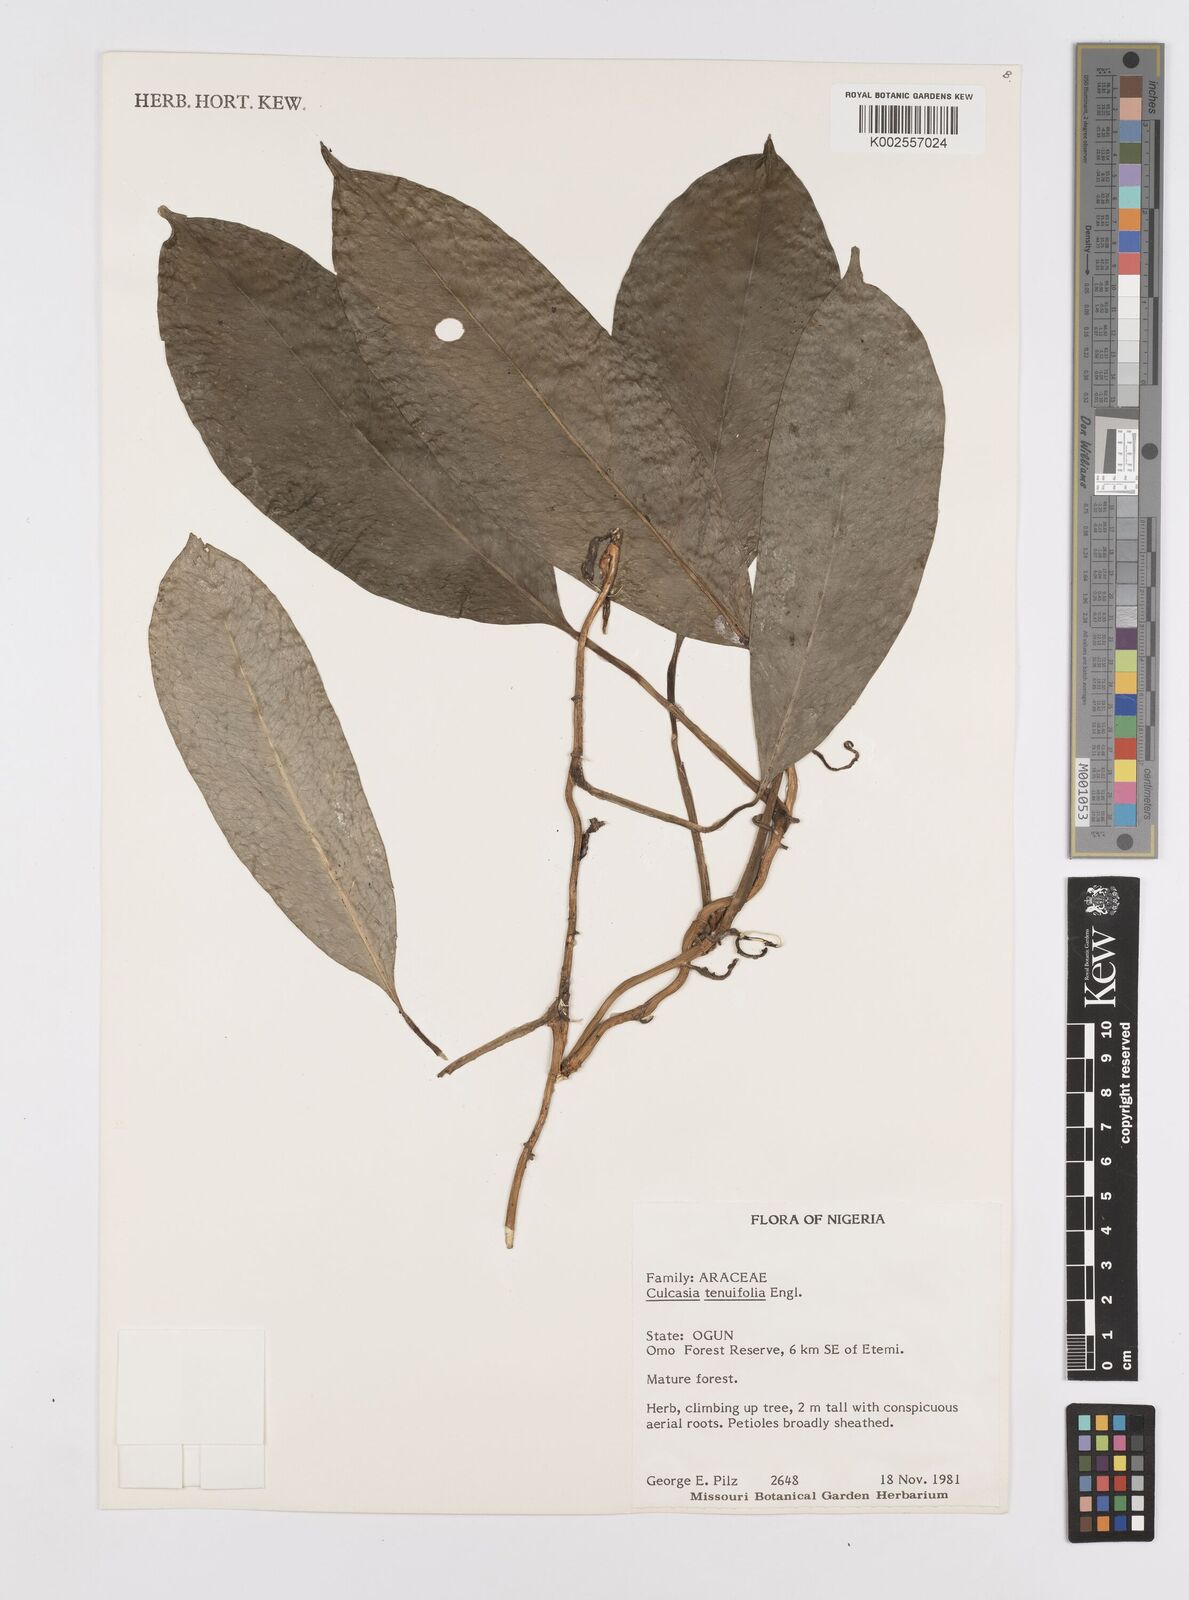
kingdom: Plantae
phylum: Tracheophyta
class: Liliopsida
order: Alismatales
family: Araceae
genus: Culcasia
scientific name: Culcasia tenuifolia
